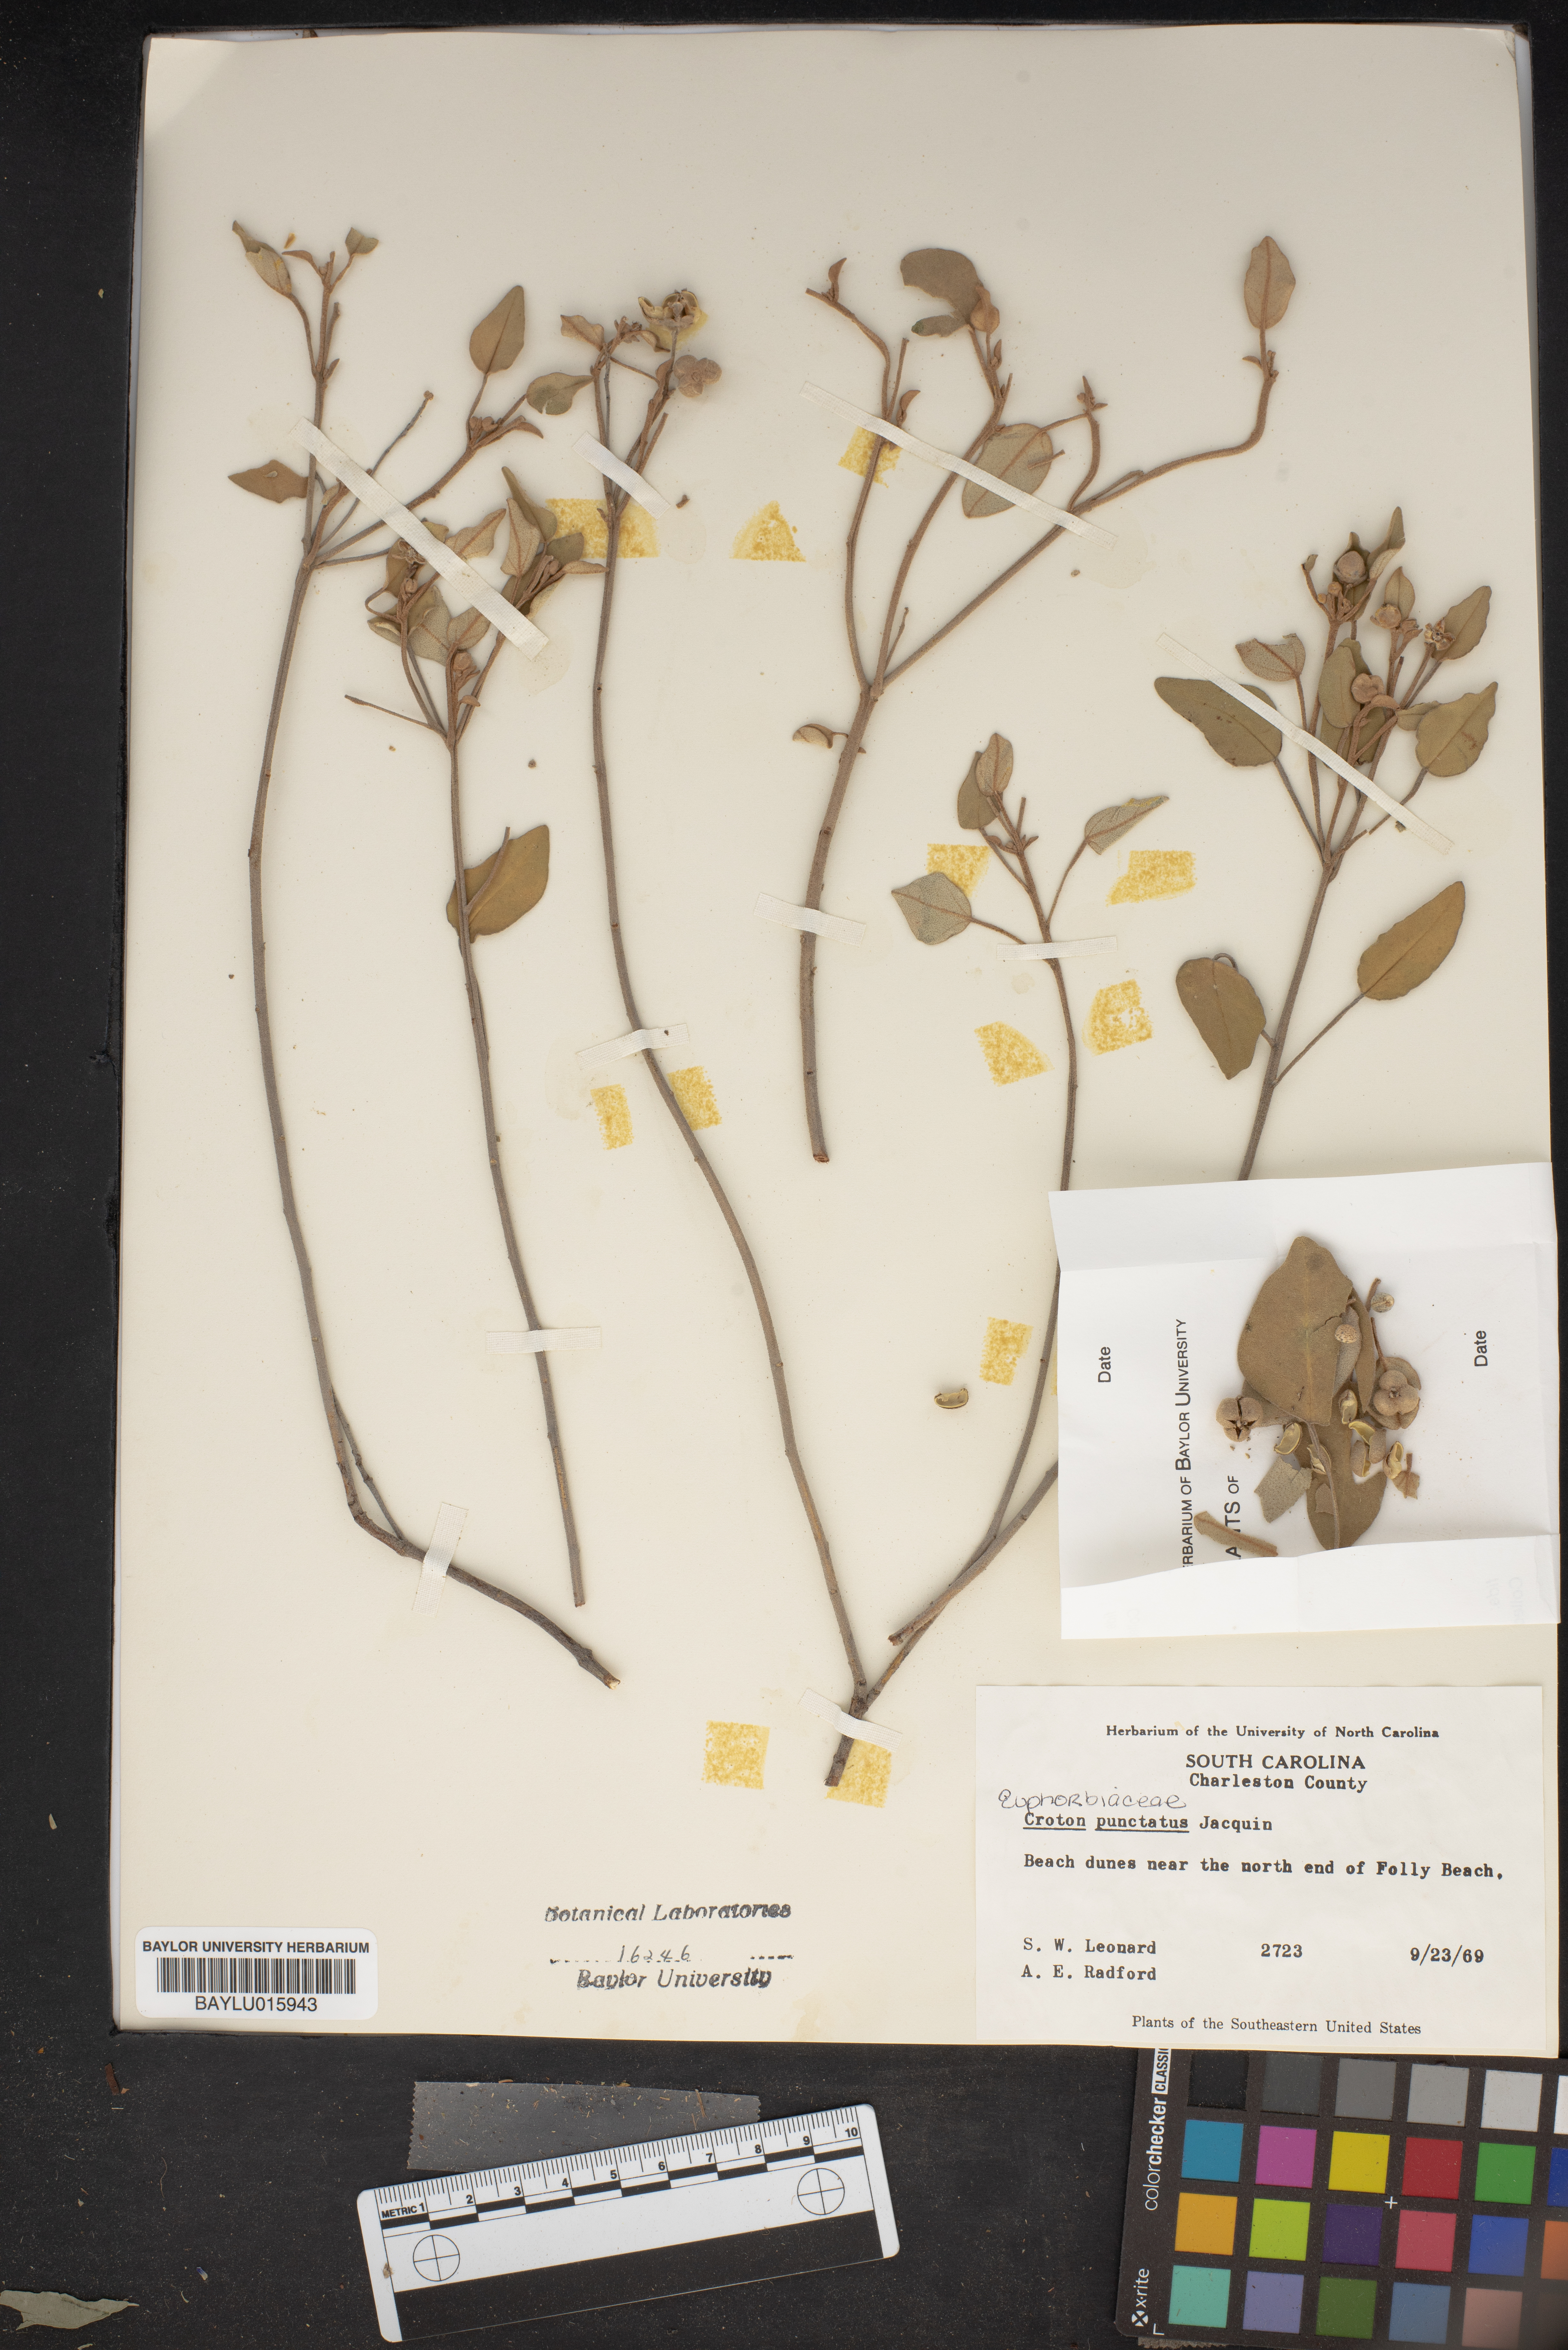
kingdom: Plantae
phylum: Tracheophyta
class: Magnoliopsida
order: Malpighiales
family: Euphorbiaceae
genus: Croton
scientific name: Croton punctatus
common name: Beach-tea
